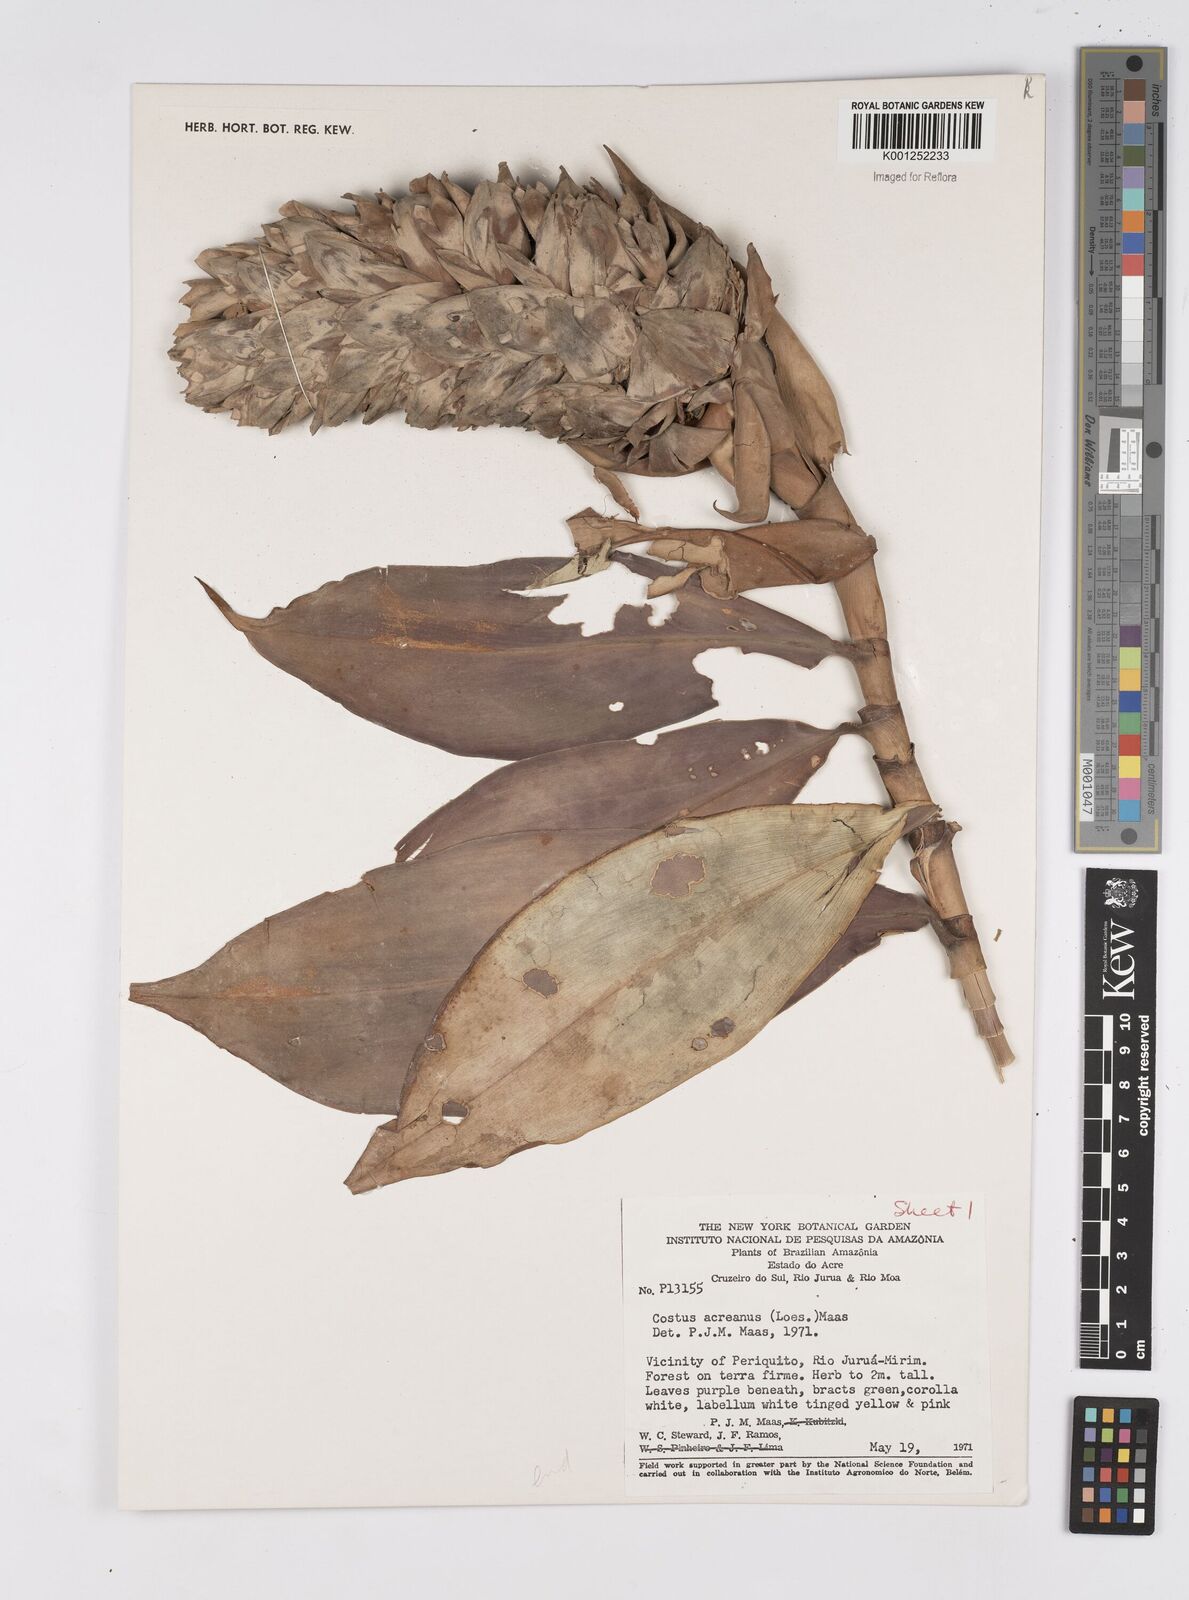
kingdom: Plantae
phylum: Tracheophyta
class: Liliopsida
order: Zingiberales
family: Costaceae
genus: Costus
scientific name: Costus acreanus
